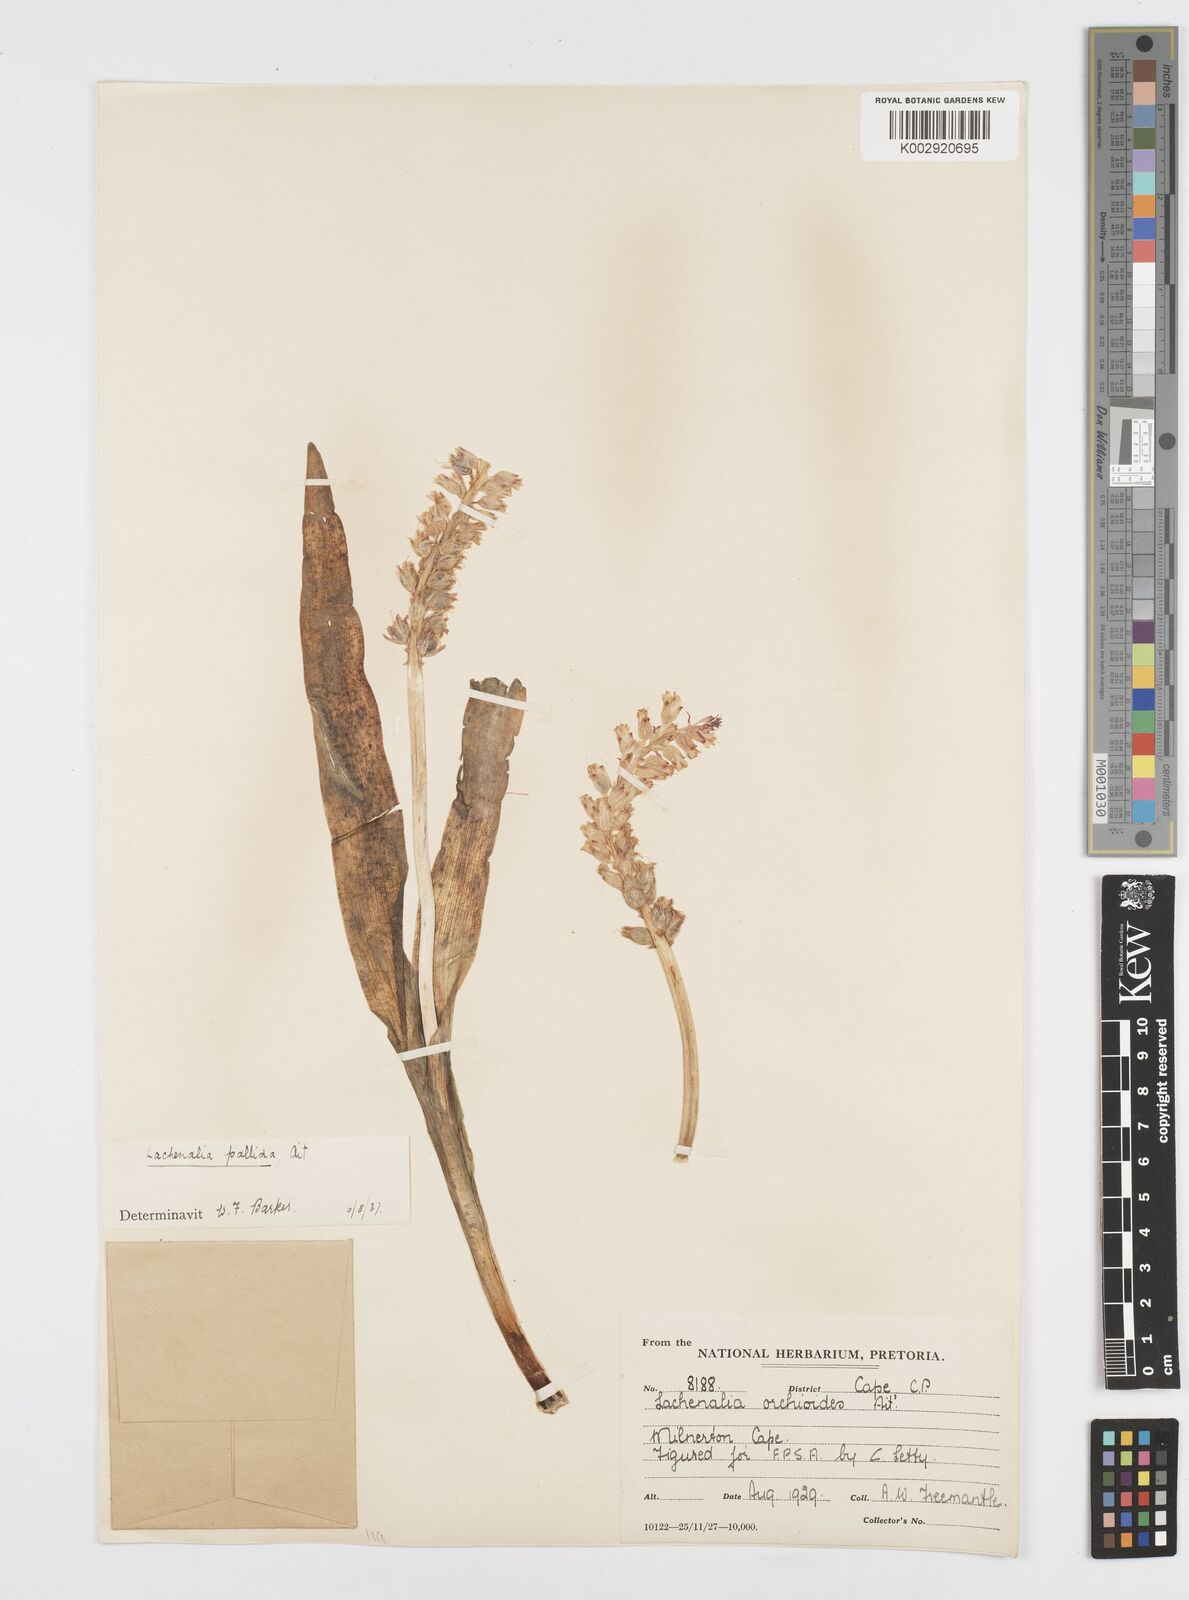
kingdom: Plantae
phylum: Tracheophyta
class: Liliopsida
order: Asparagales
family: Asparagaceae
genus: Lachenalia
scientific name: Lachenalia pallida
